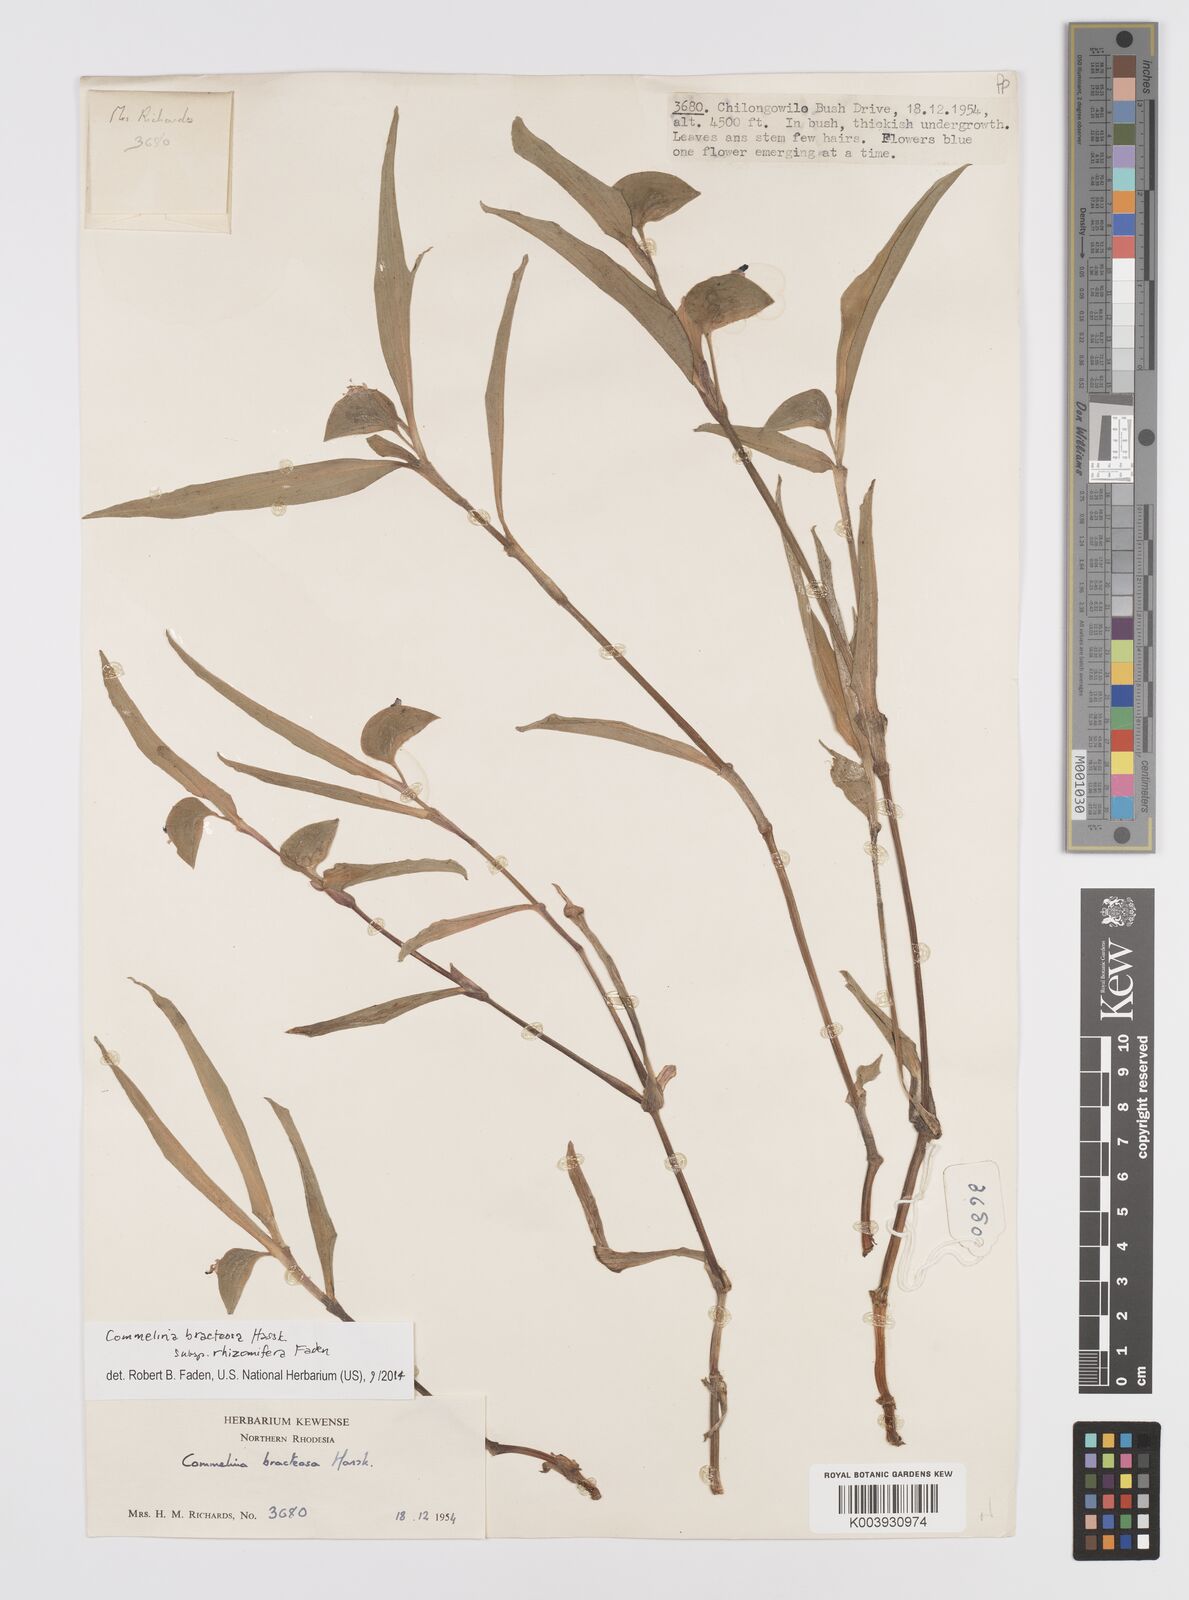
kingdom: Plantae
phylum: Tracheophyta
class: Liliopsida
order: Commelinales
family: Commelinaceae
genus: Commelina
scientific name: Commelina bracteosa
